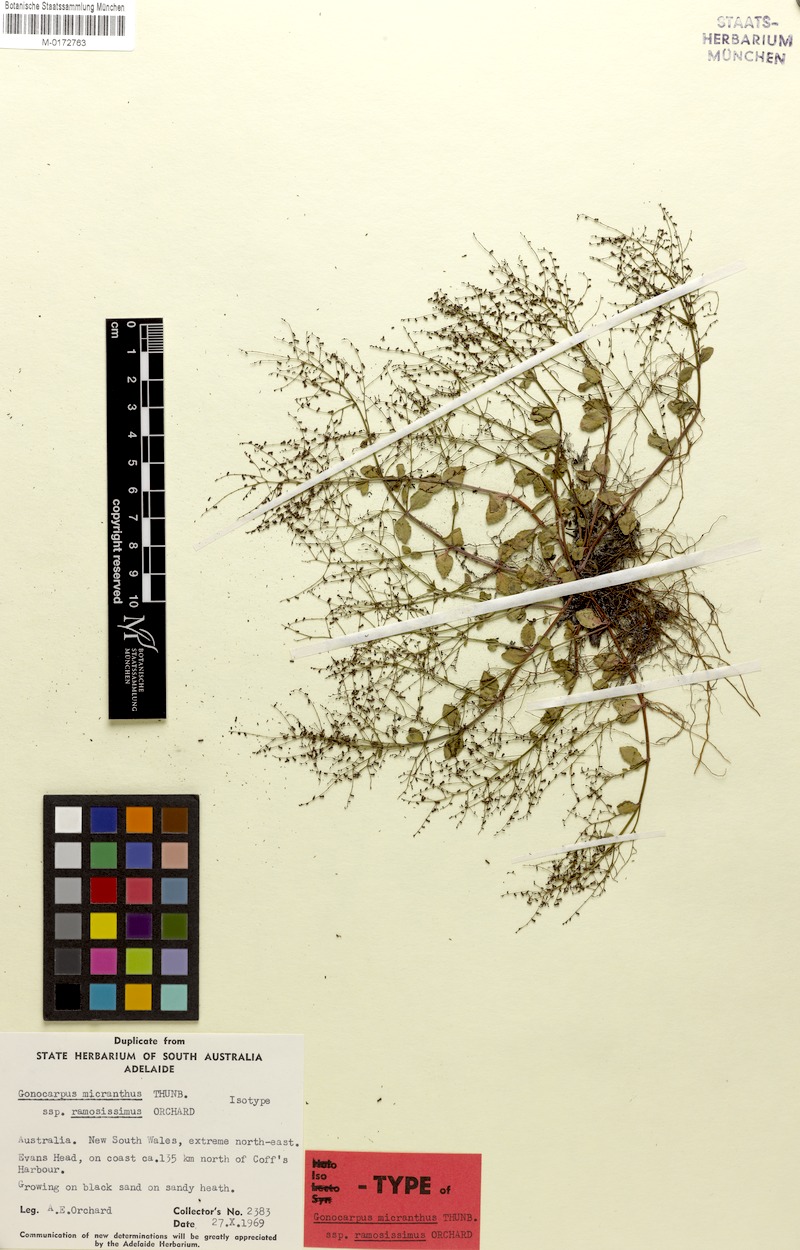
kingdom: Plantae
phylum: Tracheophyta
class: Magnoliopsida
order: Saxifragales
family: Haloragaceae
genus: Gonocarpus
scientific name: Gonocarpus micranthus
